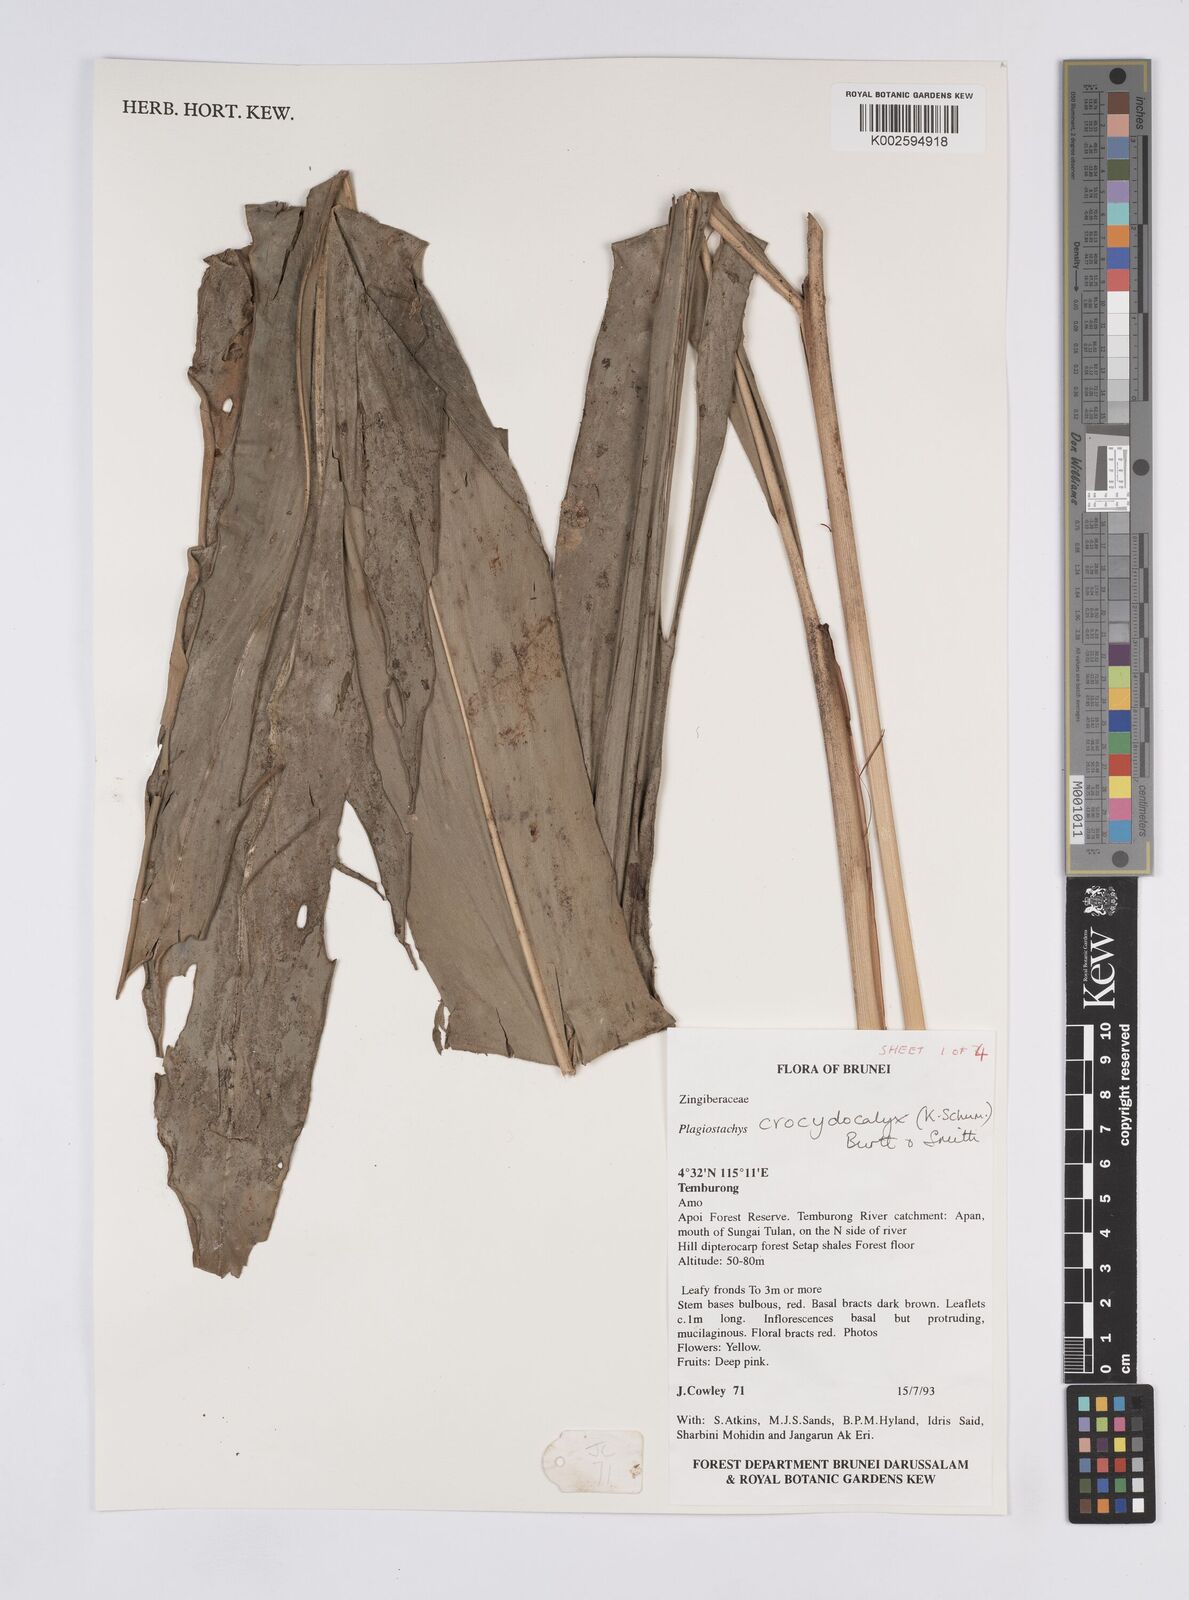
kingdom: Plantae
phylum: Tracheophyta
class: Liliopsida
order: Zingiberales
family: Zingiberaceae
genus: Plagiostachys
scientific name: Plagiostachys crocydocalyx
